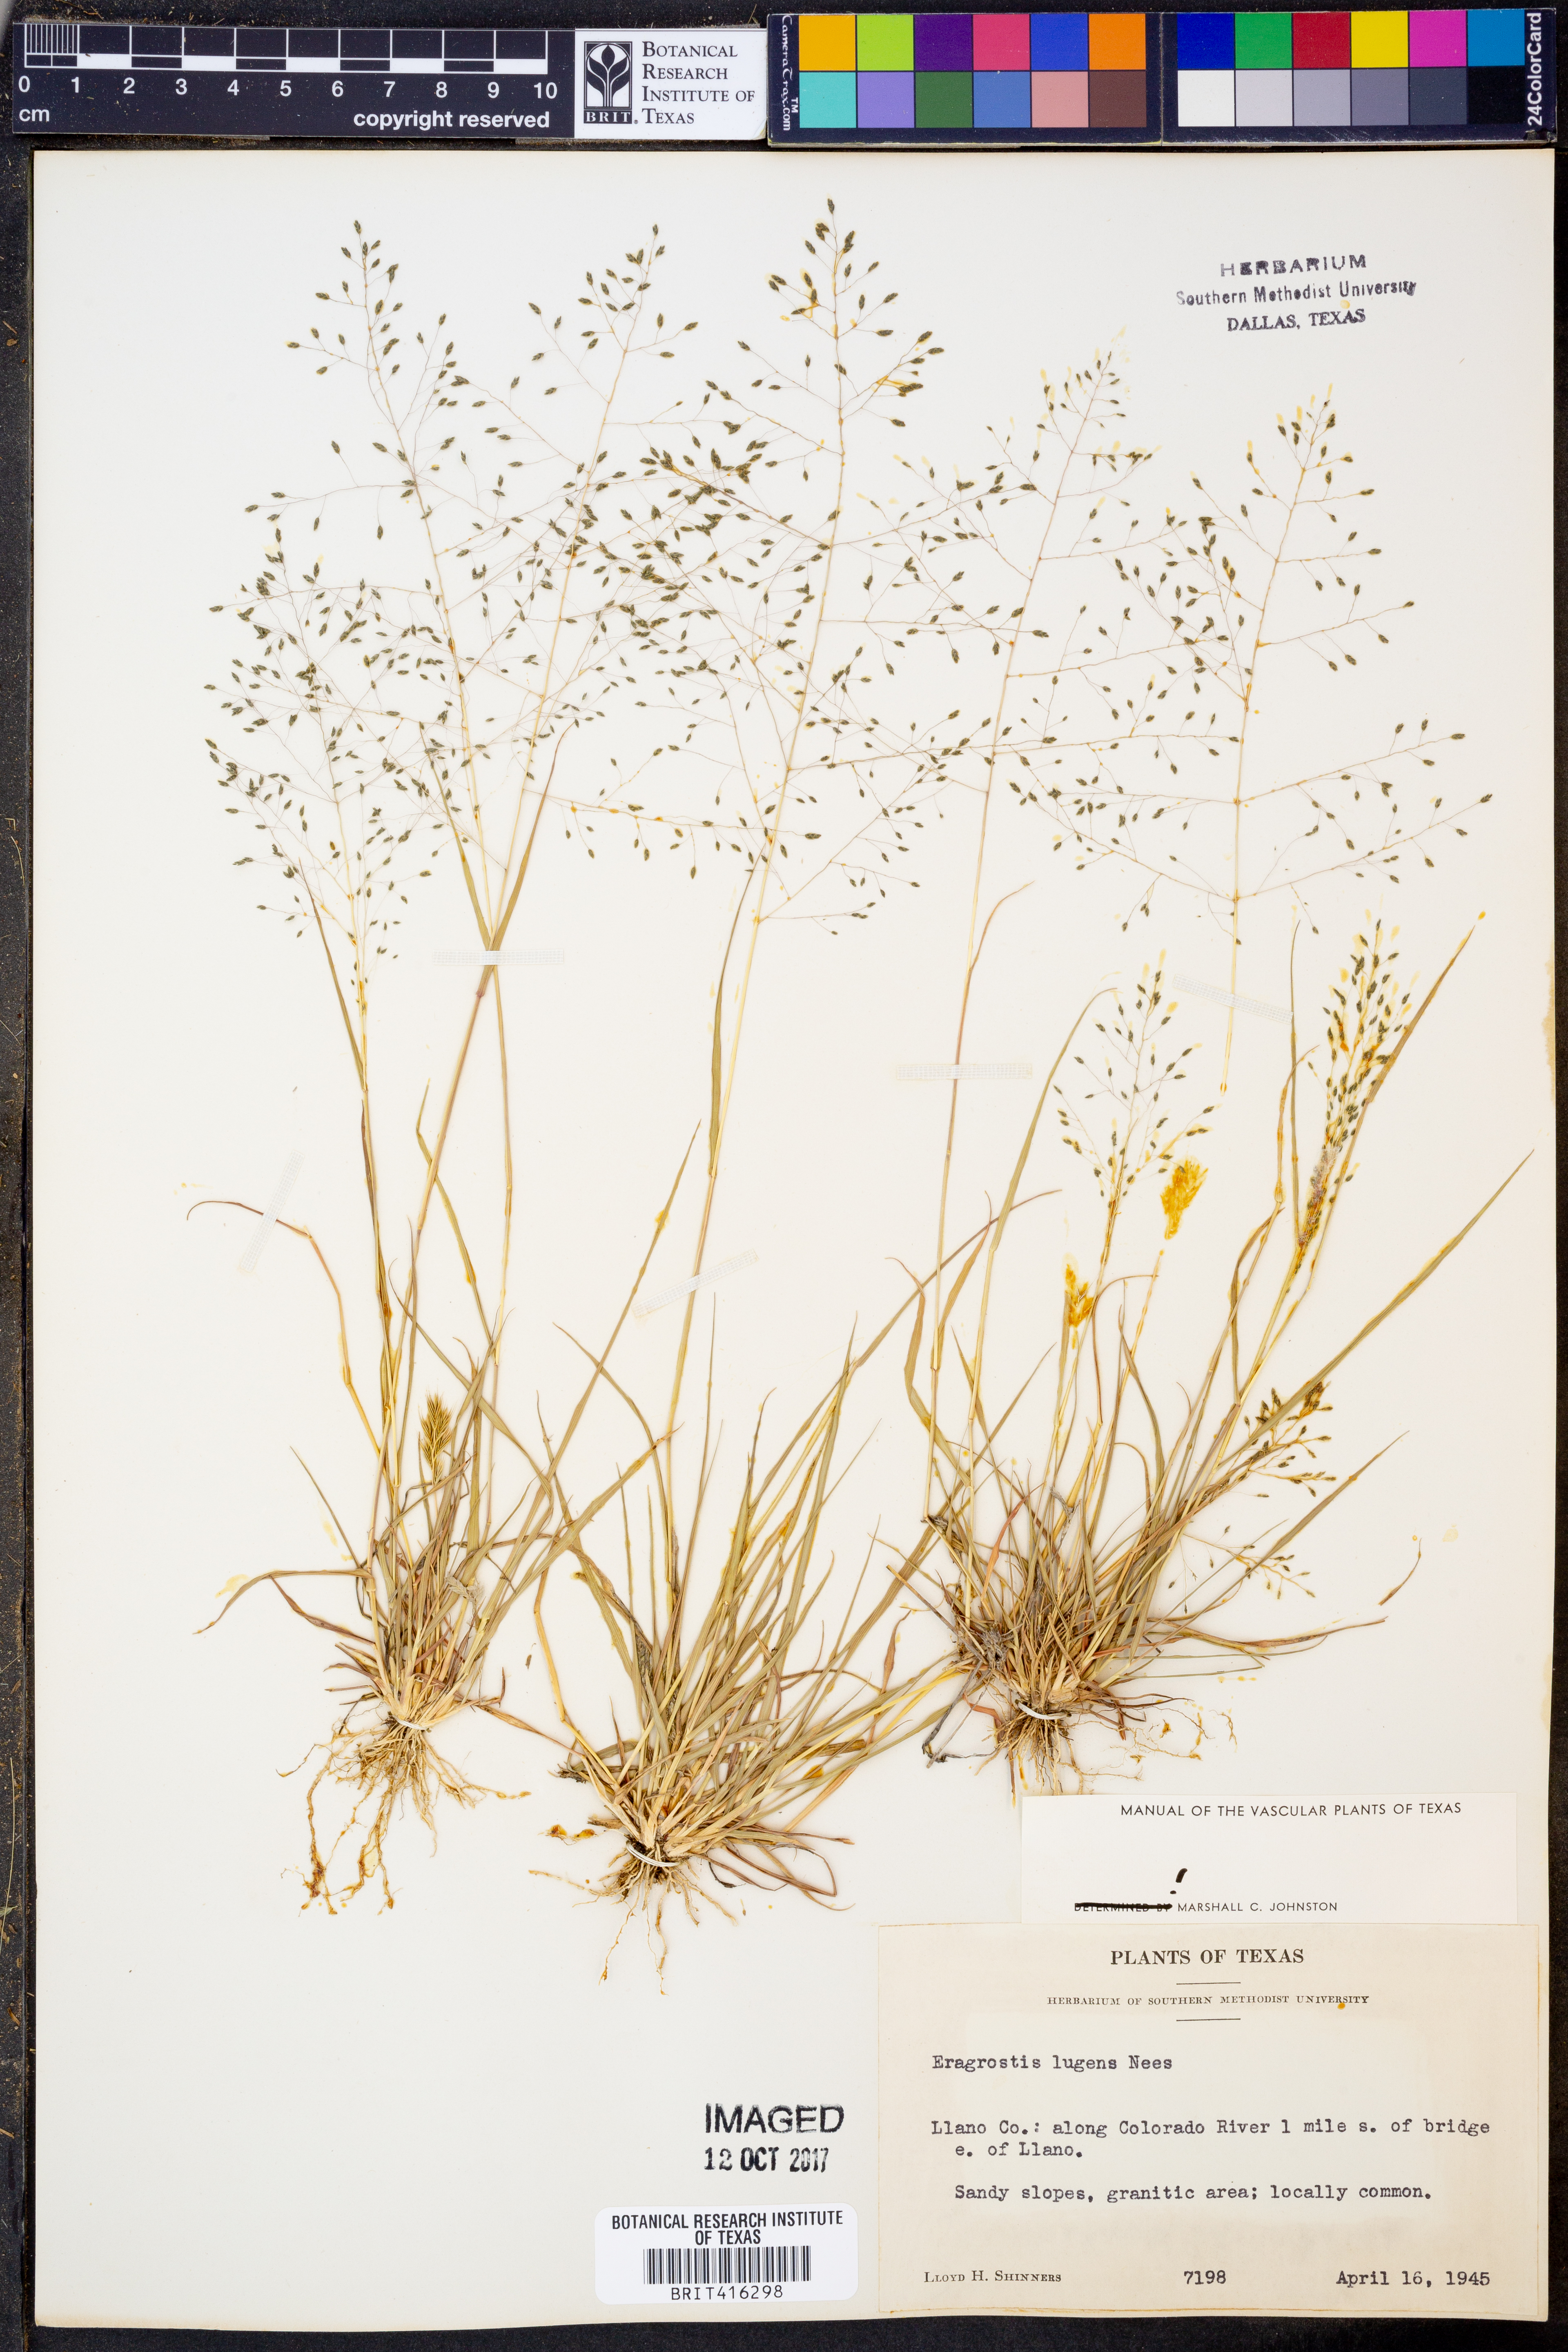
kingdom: Plantae
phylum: Tracheophyta
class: Liliopsida
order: Poales
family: Poaceae
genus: Eragrostis
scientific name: Eragrostis capillaris
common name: Hair-like lovegrass
